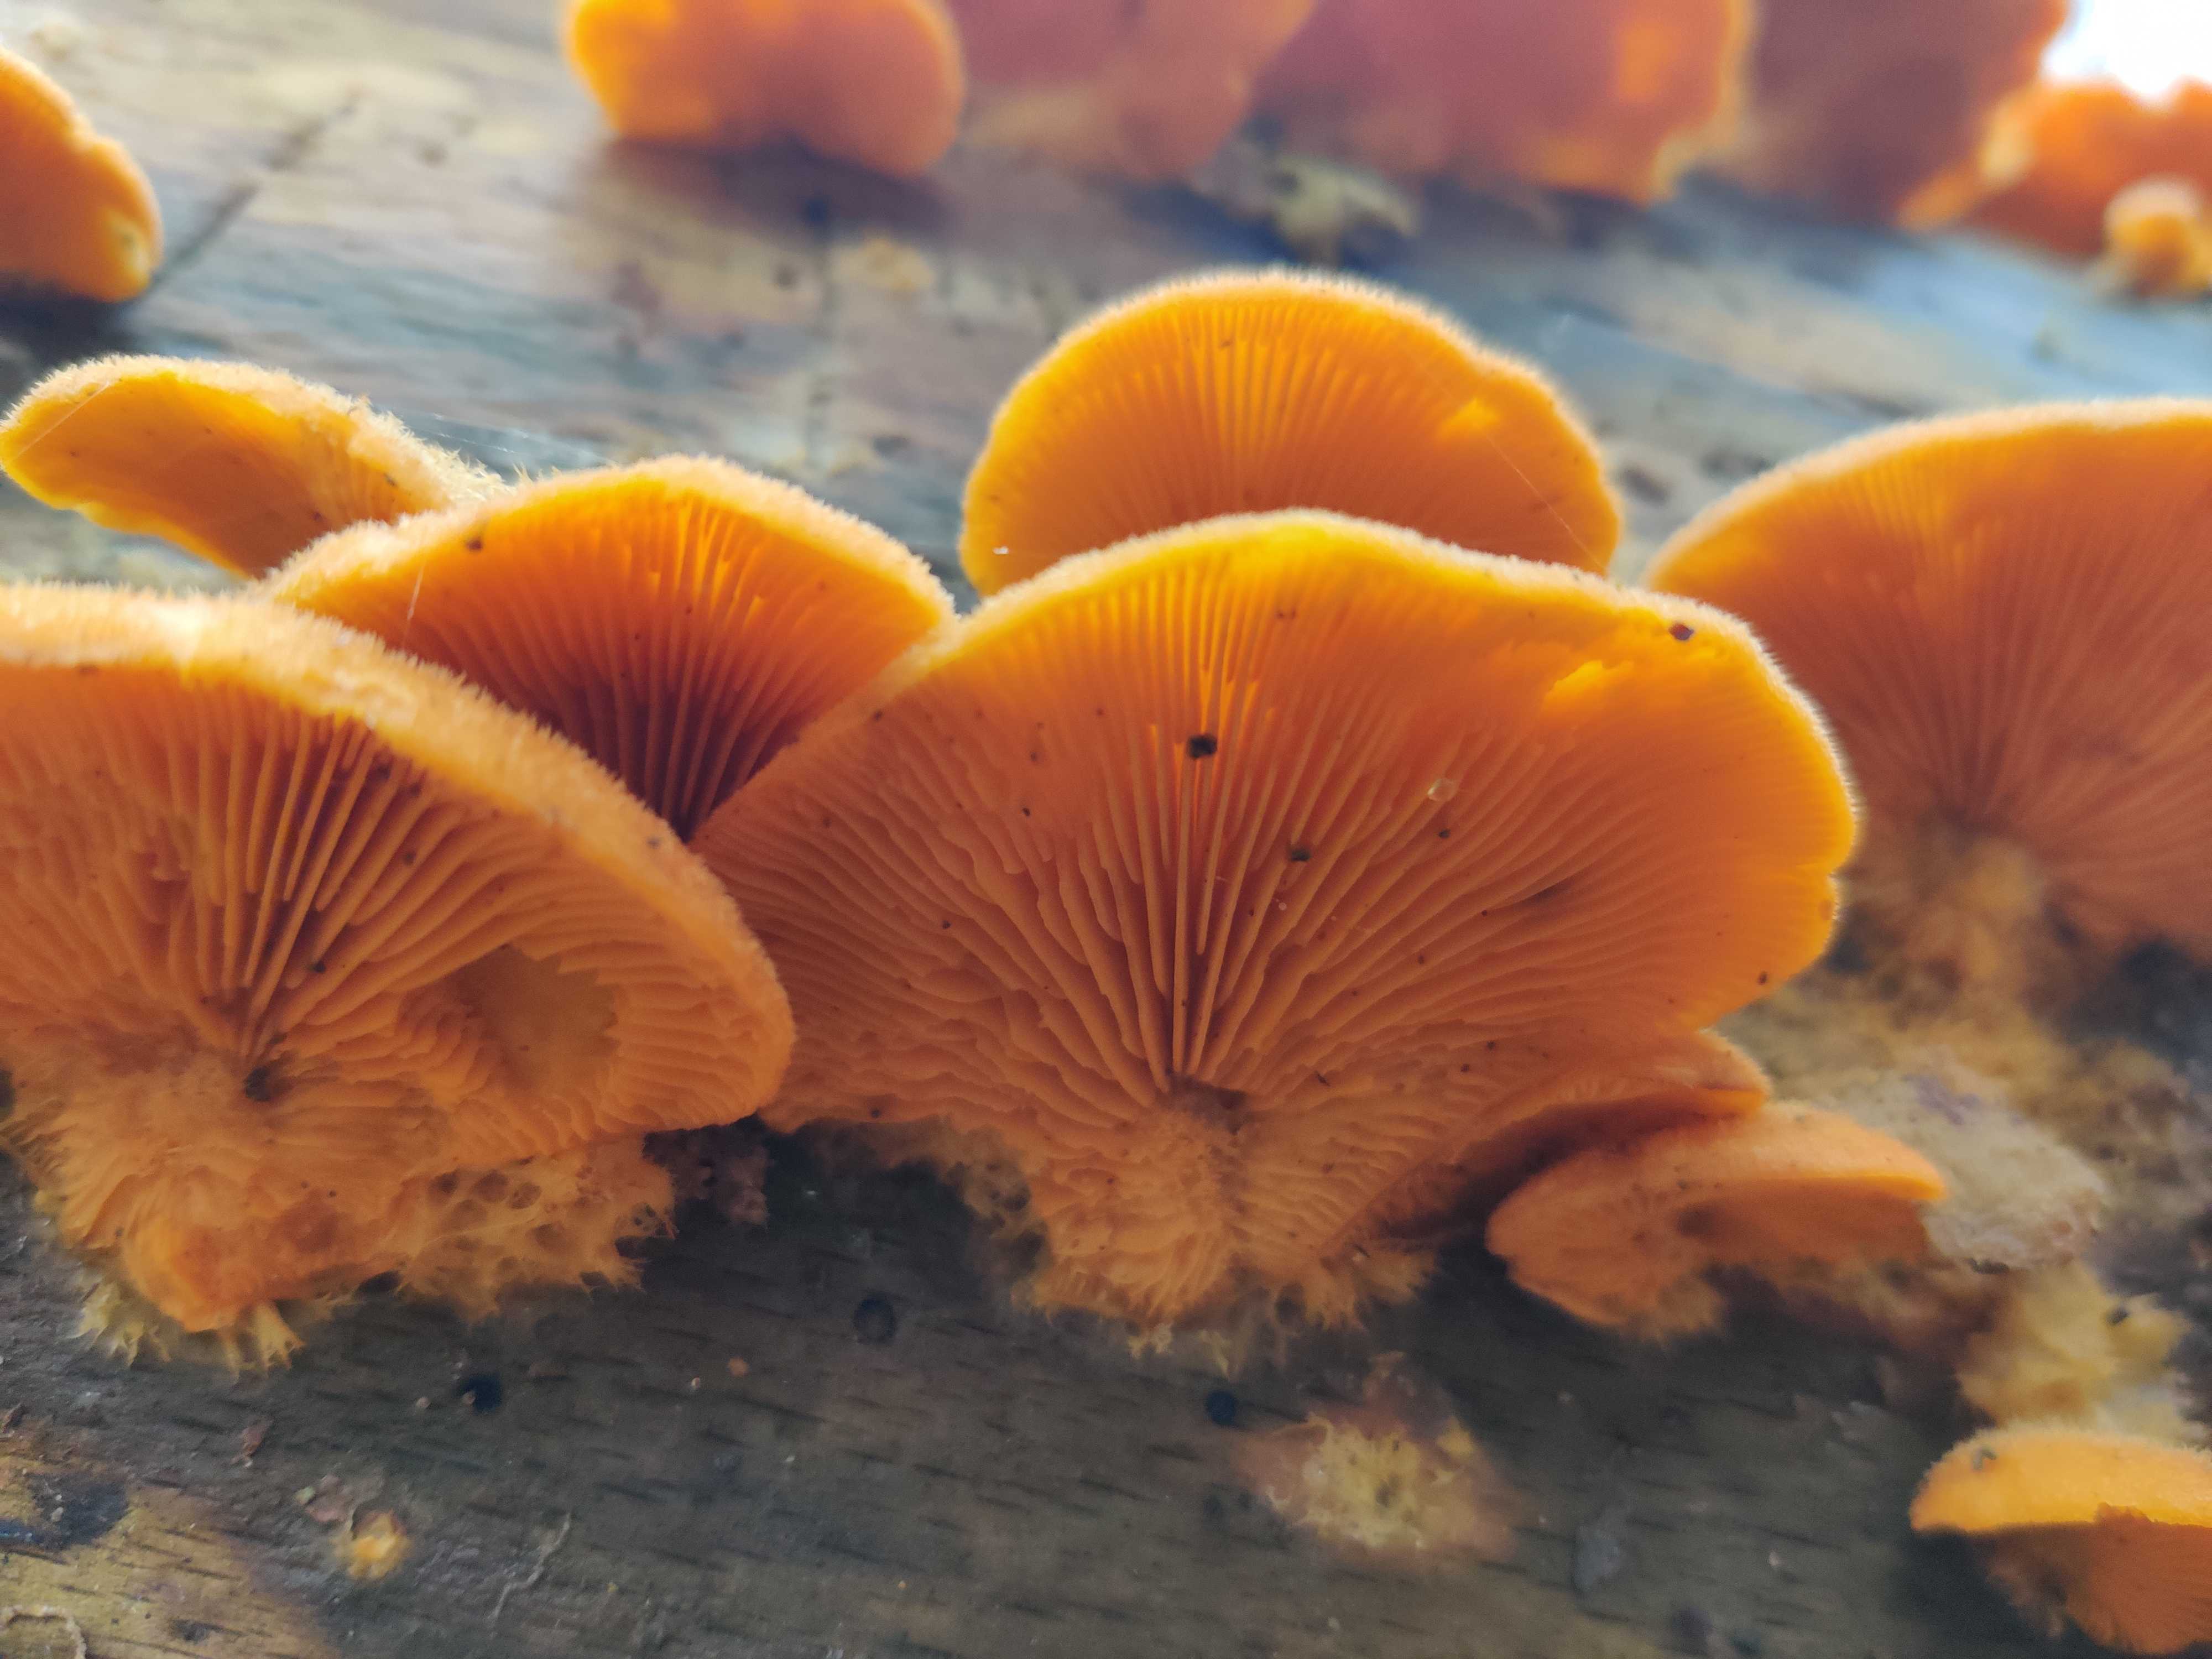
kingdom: Fungi
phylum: Basidiomycota
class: Agaricomycetes
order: Agaricales
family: Phyllotopsidaceae
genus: Phyllotopsis
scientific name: Phyllotopsis nidulans
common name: okkerblad
